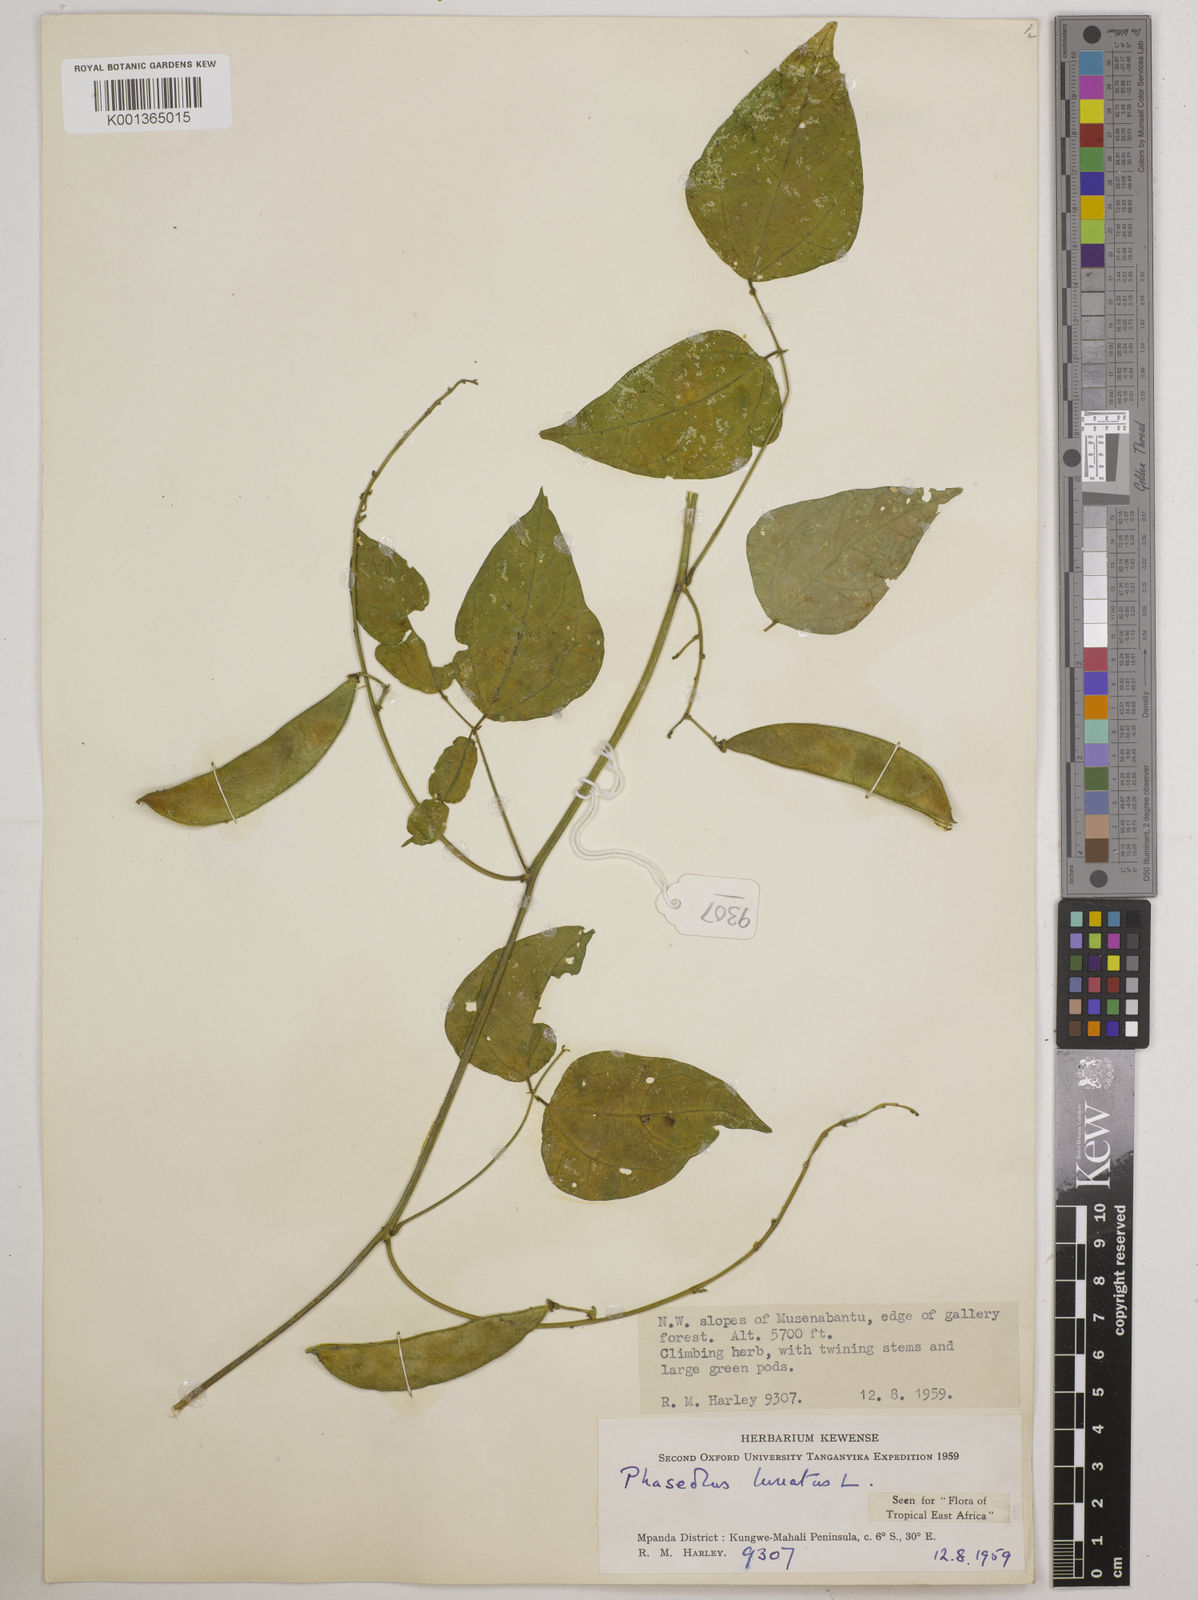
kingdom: Plantae
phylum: Tracheophyta
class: Magnoliopsida
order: Fabales
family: Fabaceae
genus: Phaseolus
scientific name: Phaseolus lunatus
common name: Sieva bean
